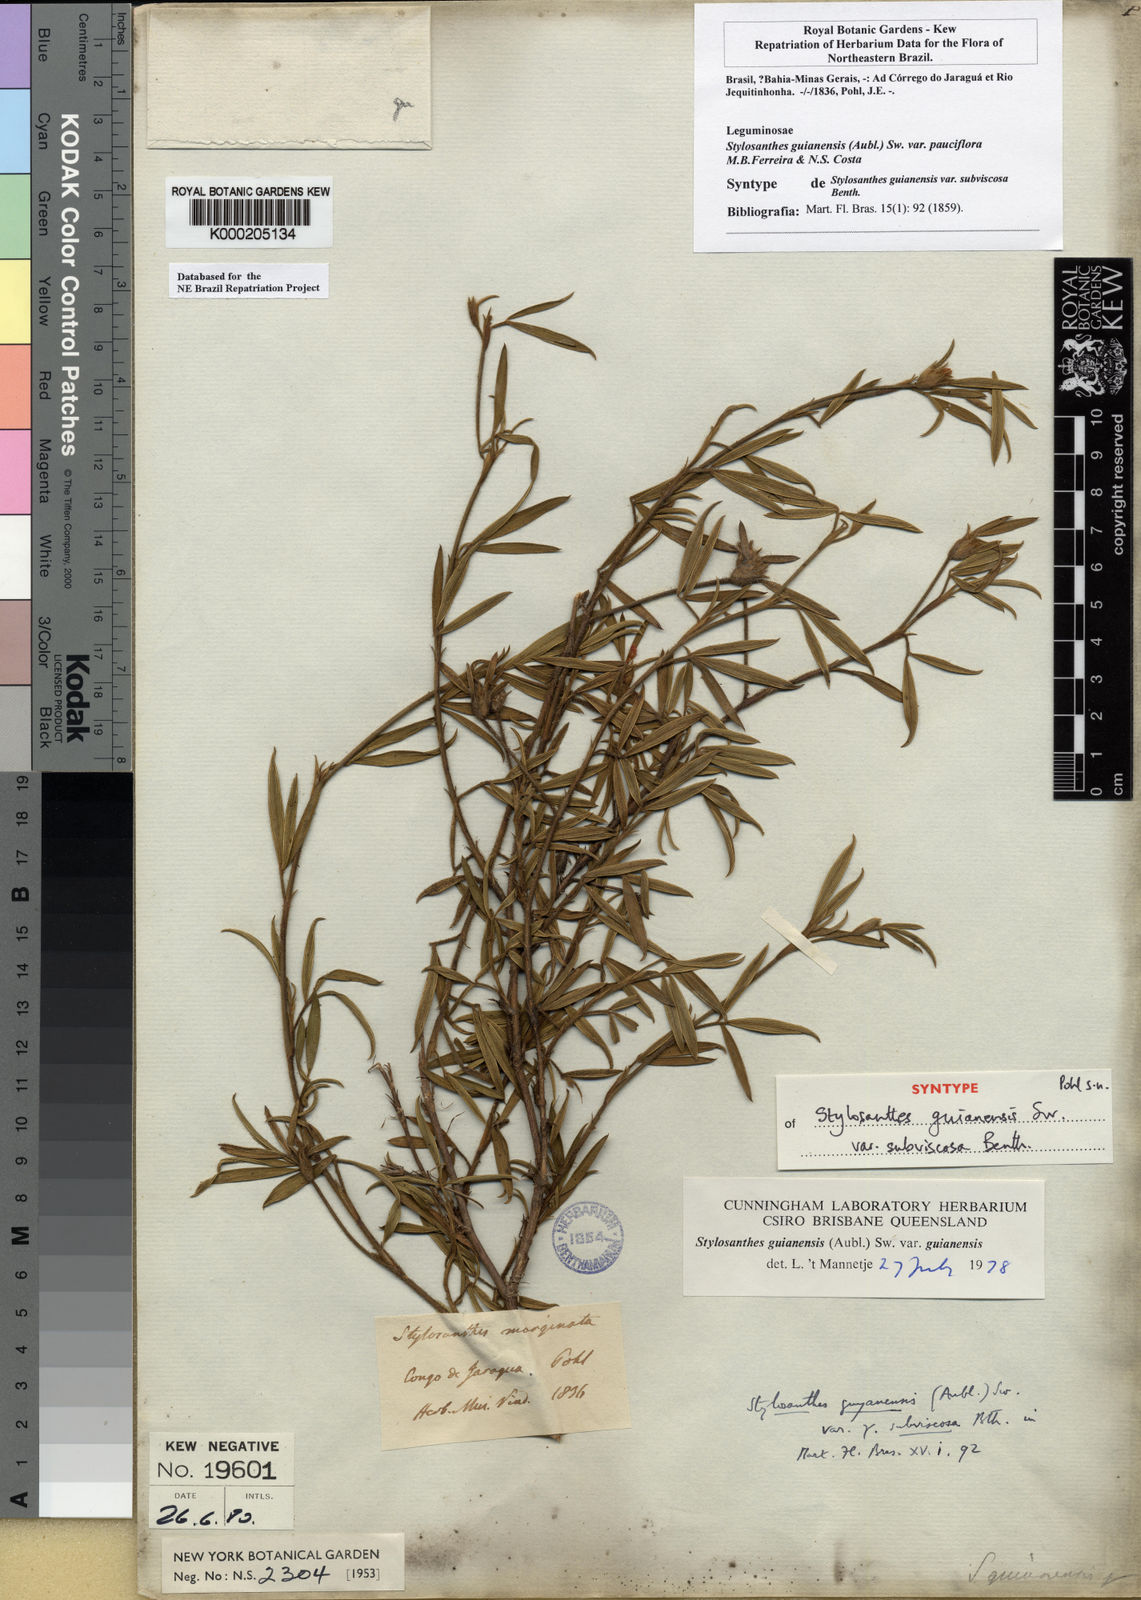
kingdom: Plantae
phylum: Tracheophyta
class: Magnoliopsida
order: Fabales
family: Fabaceae
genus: Stylosanthes
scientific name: Stylosanthes guianensis
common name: Pencil flower
